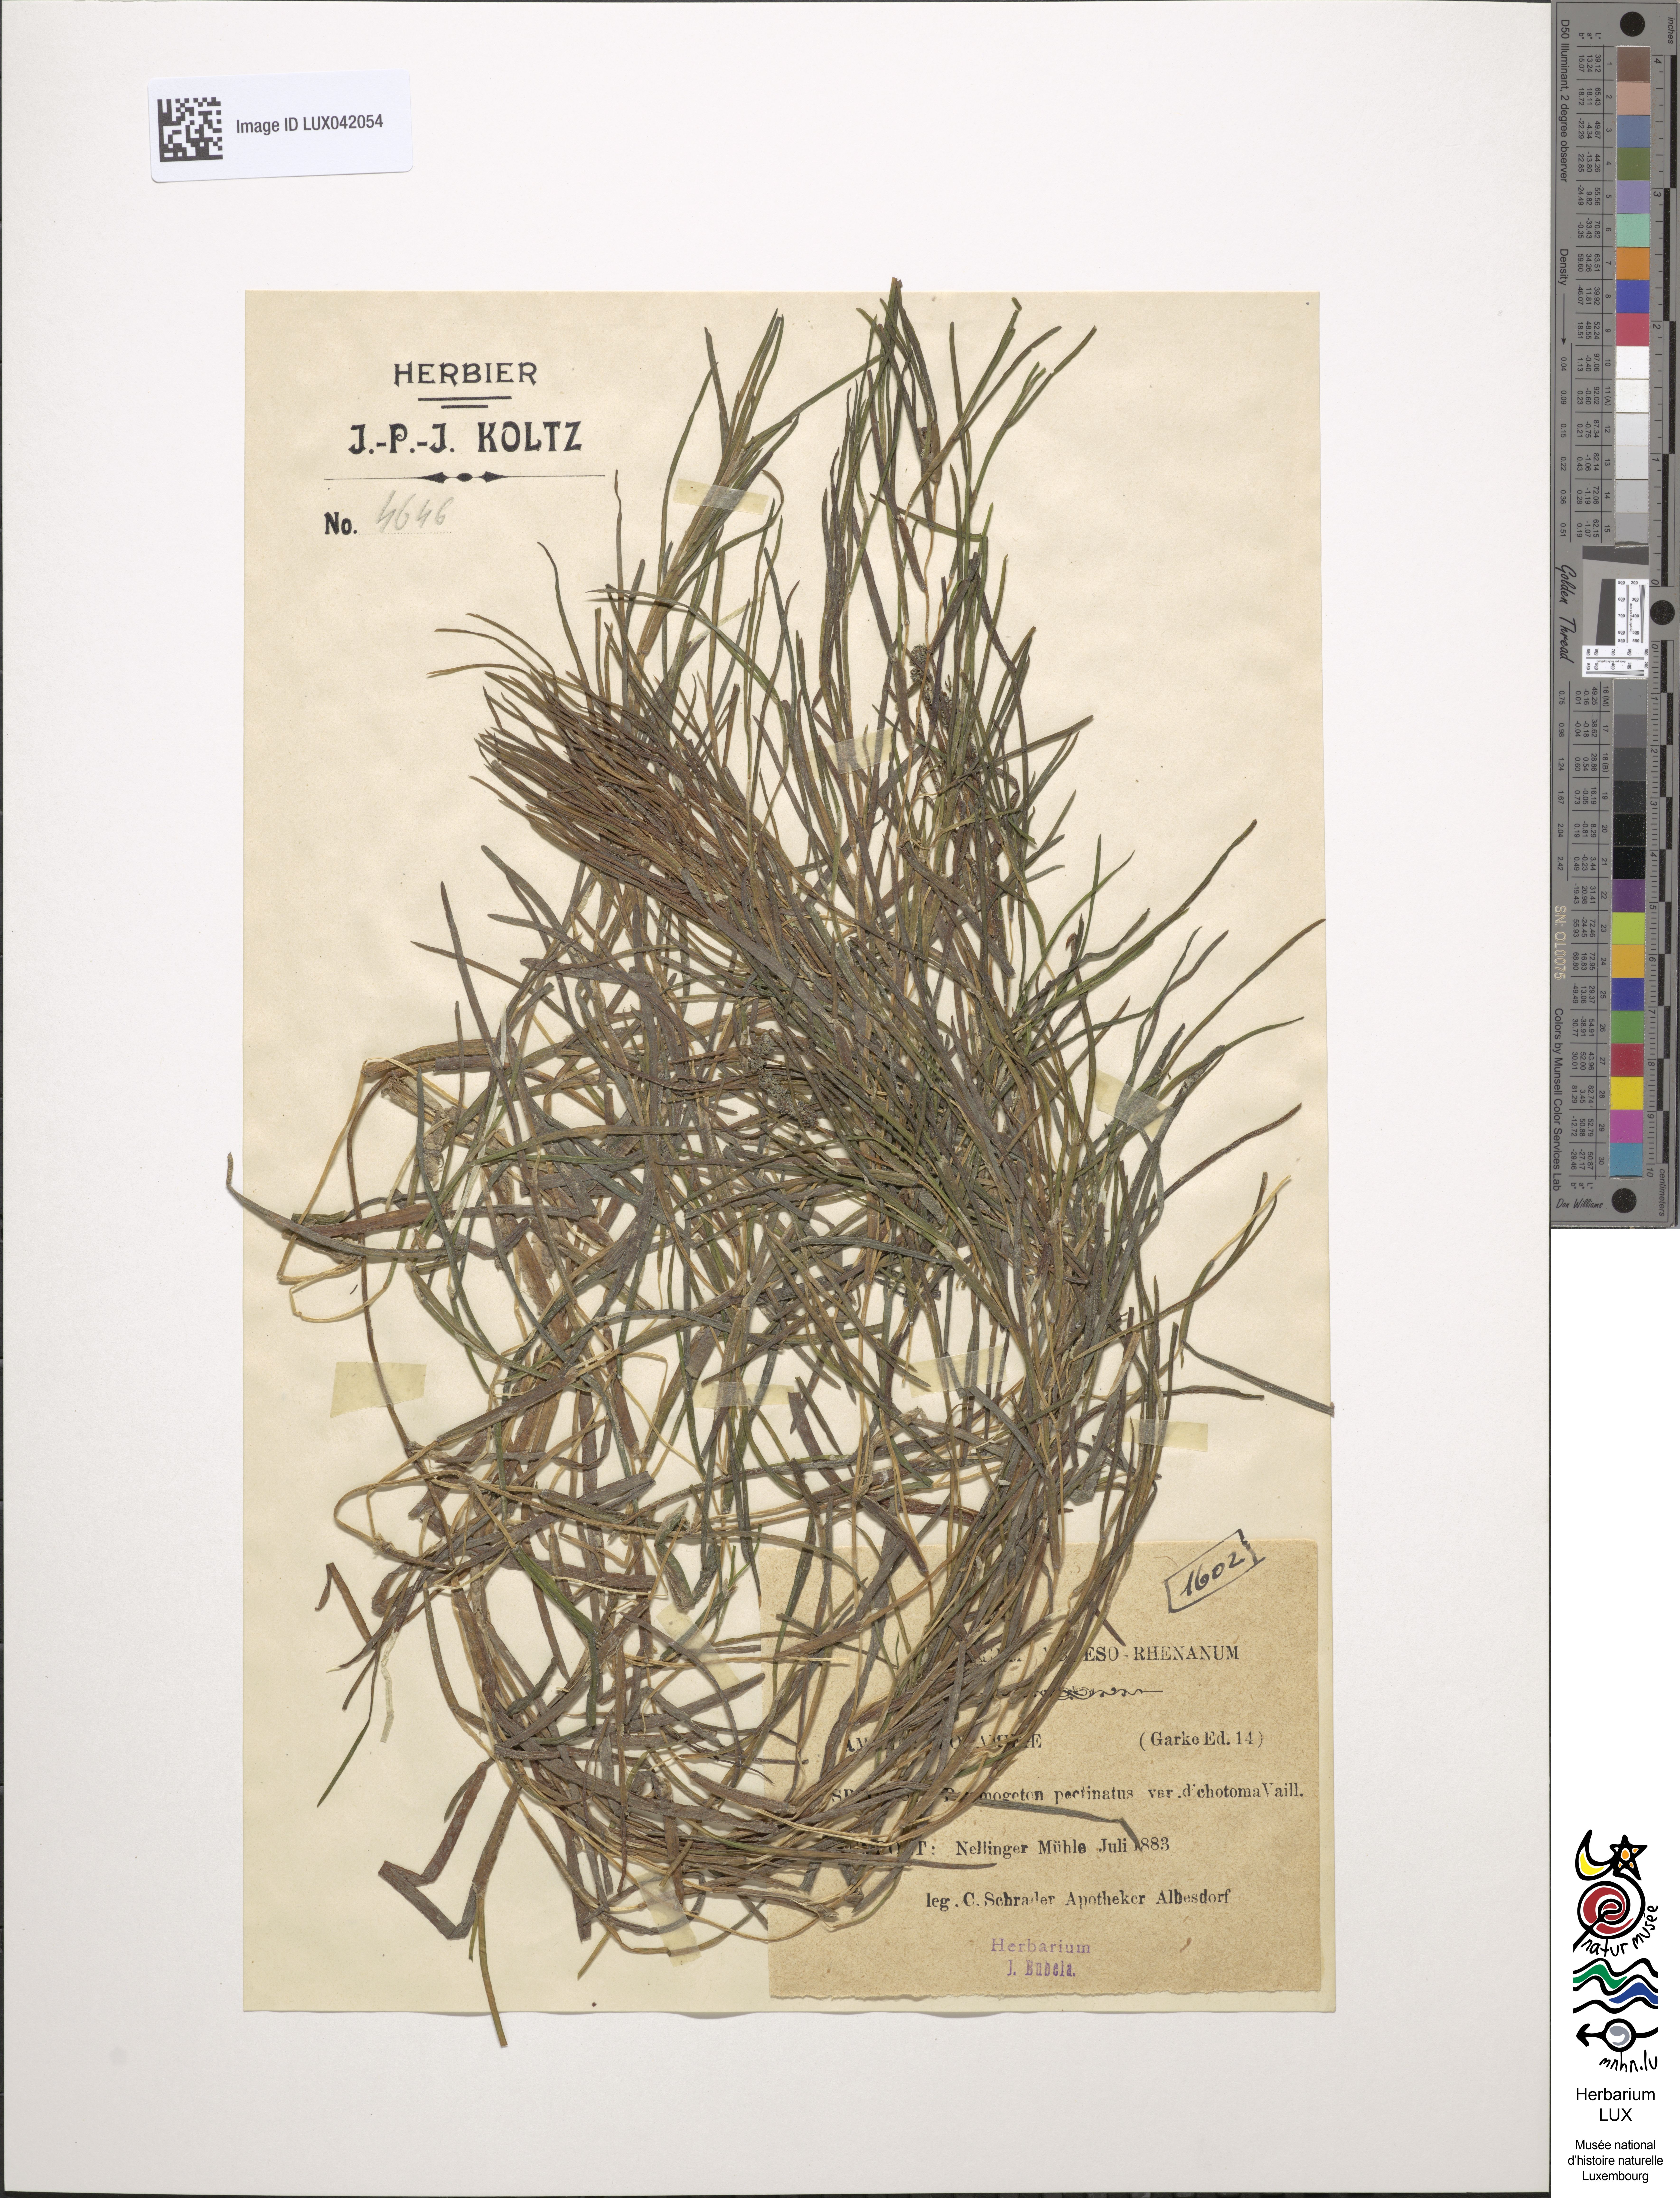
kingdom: Plantae
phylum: Tracheophyta
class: Liliopsida
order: Alismatales
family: Potamogetonaceae
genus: Stuckenia
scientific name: Stuckenia pectinata
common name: Sago pondweed
